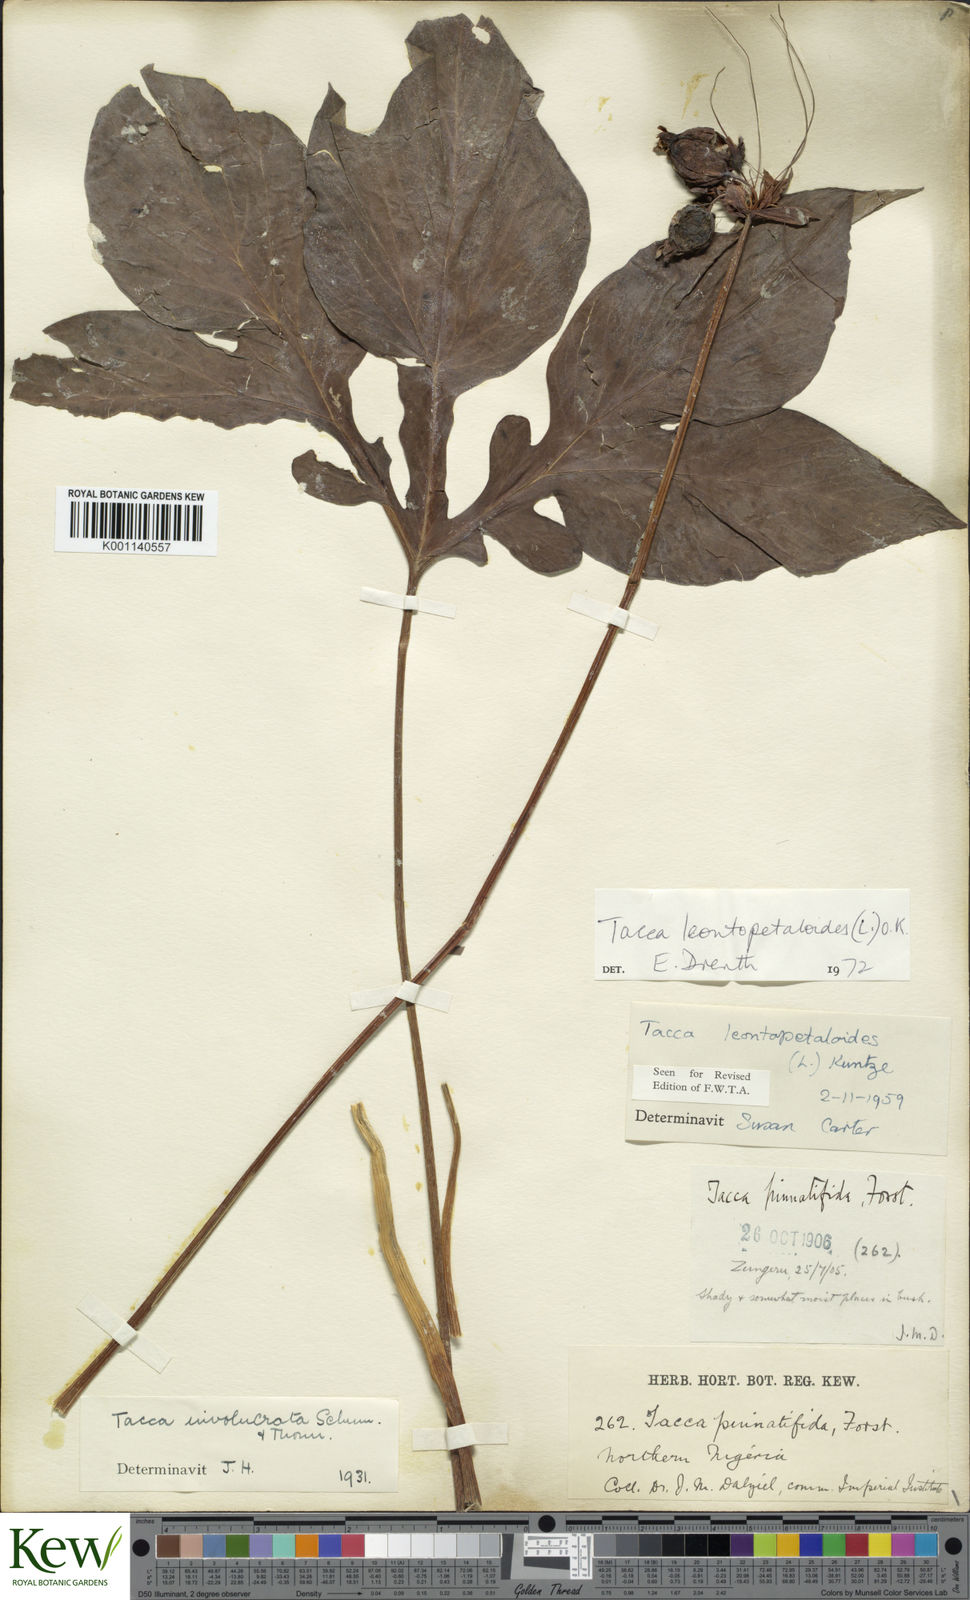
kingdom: Plantae
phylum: Tracheophyta
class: Liliopsida
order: Dioscoreales
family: Dioscoreaceae
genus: Tacca
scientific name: Tacca leontopetaloides
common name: Arrowroot
